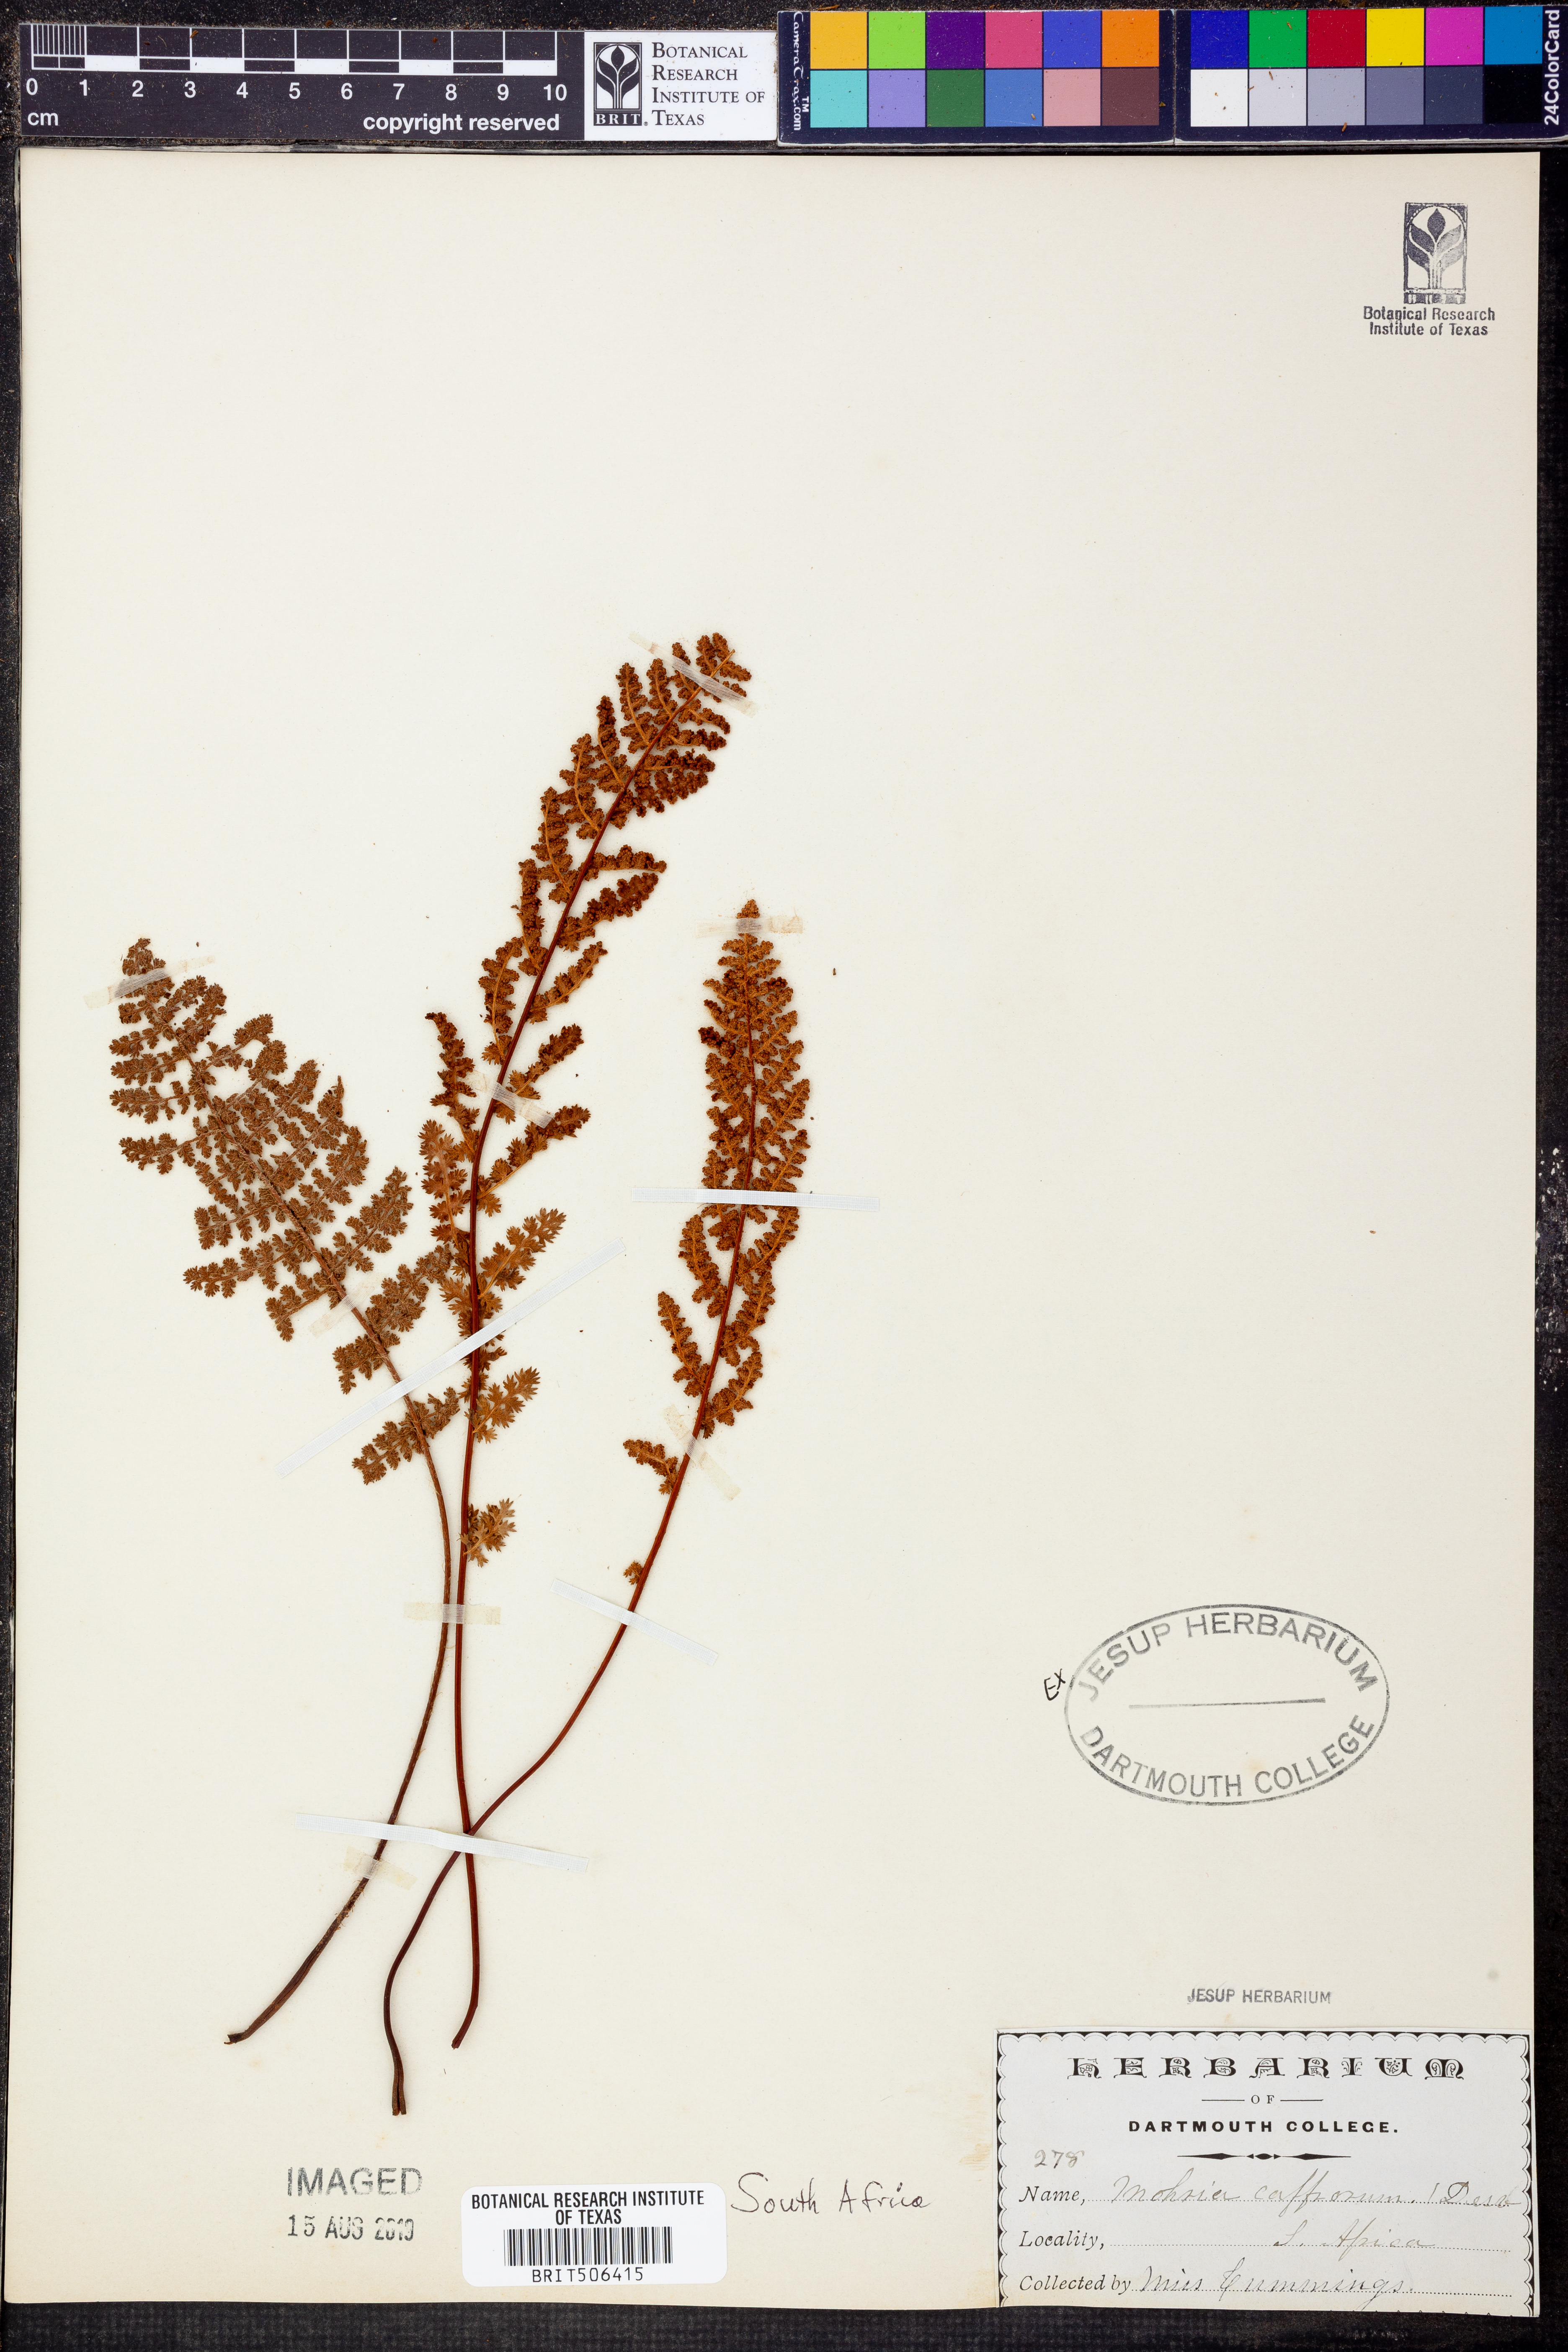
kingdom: Plantae
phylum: Tracheophyta
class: Polypodiopsida
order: Schizaeales
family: Anemiaceae
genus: Anemia
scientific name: Anemia caffrorum
